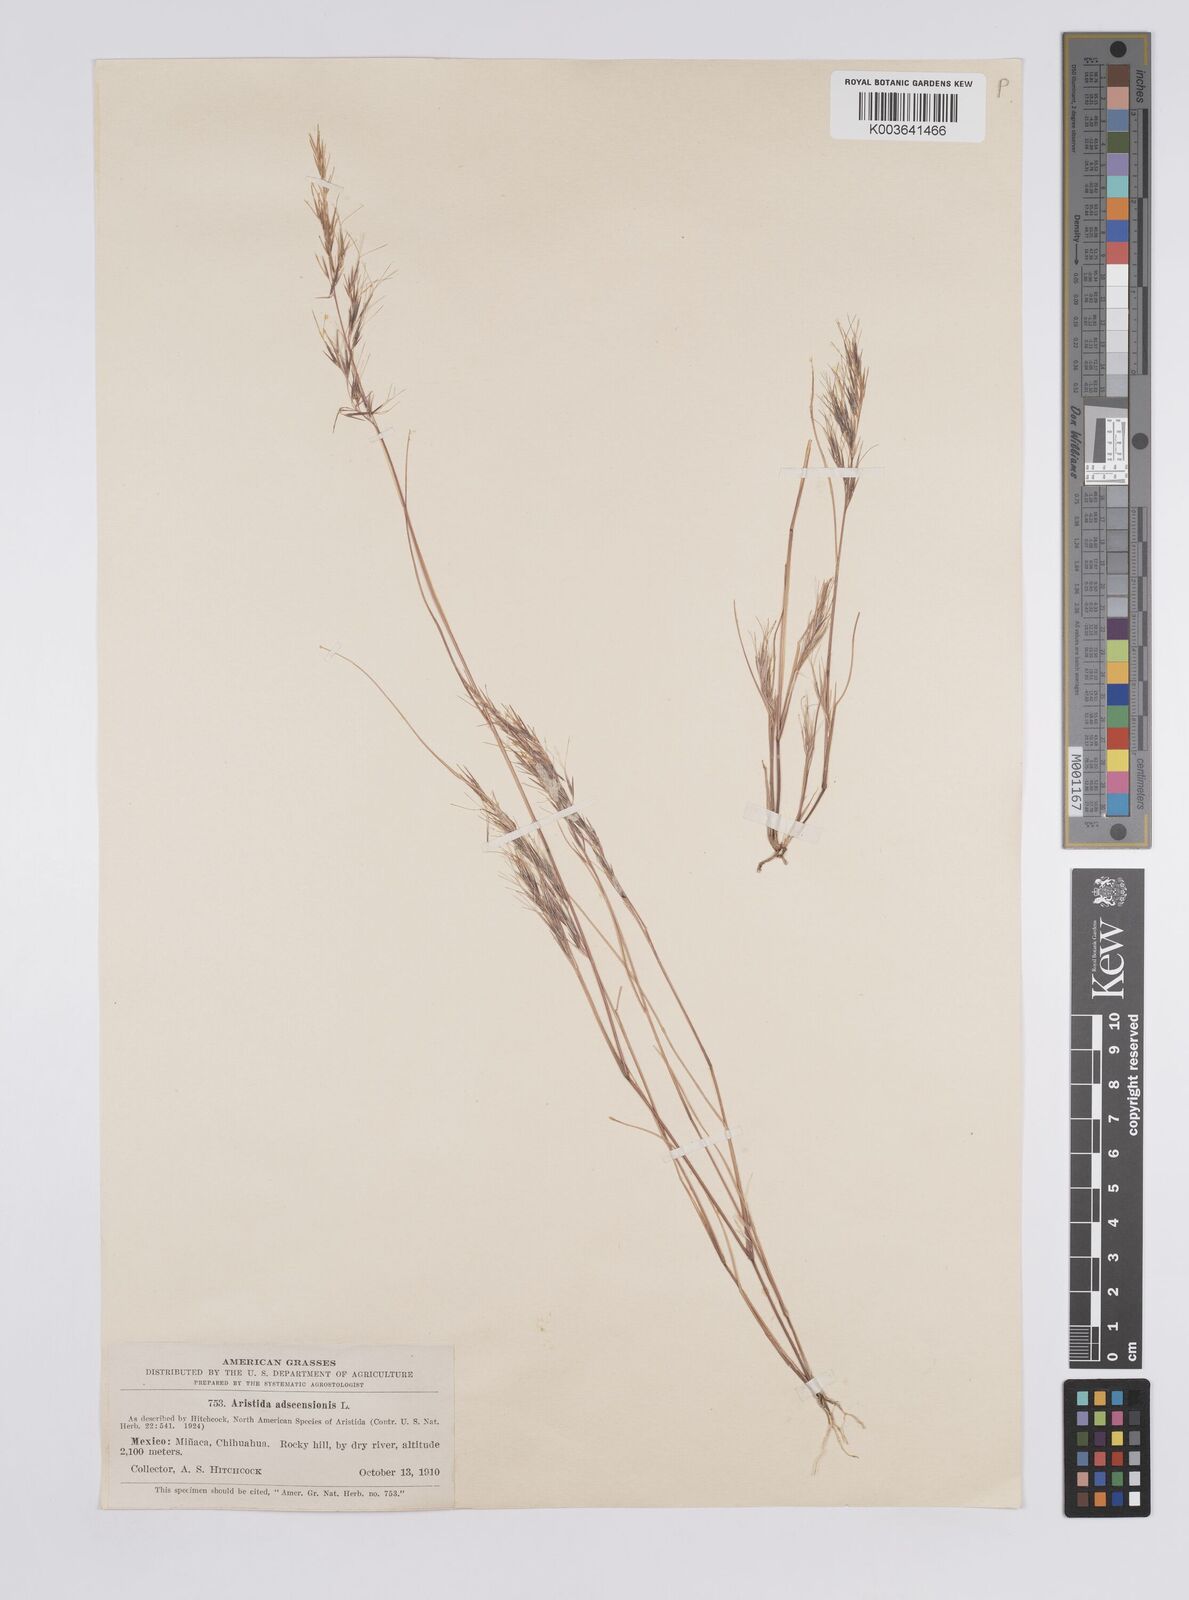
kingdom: Plantae
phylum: Tracheophyta
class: Liliopsida
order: Poales
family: Poaceae
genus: Aristida
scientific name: Aristida adscensionis
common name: Sixweeks threeawn
